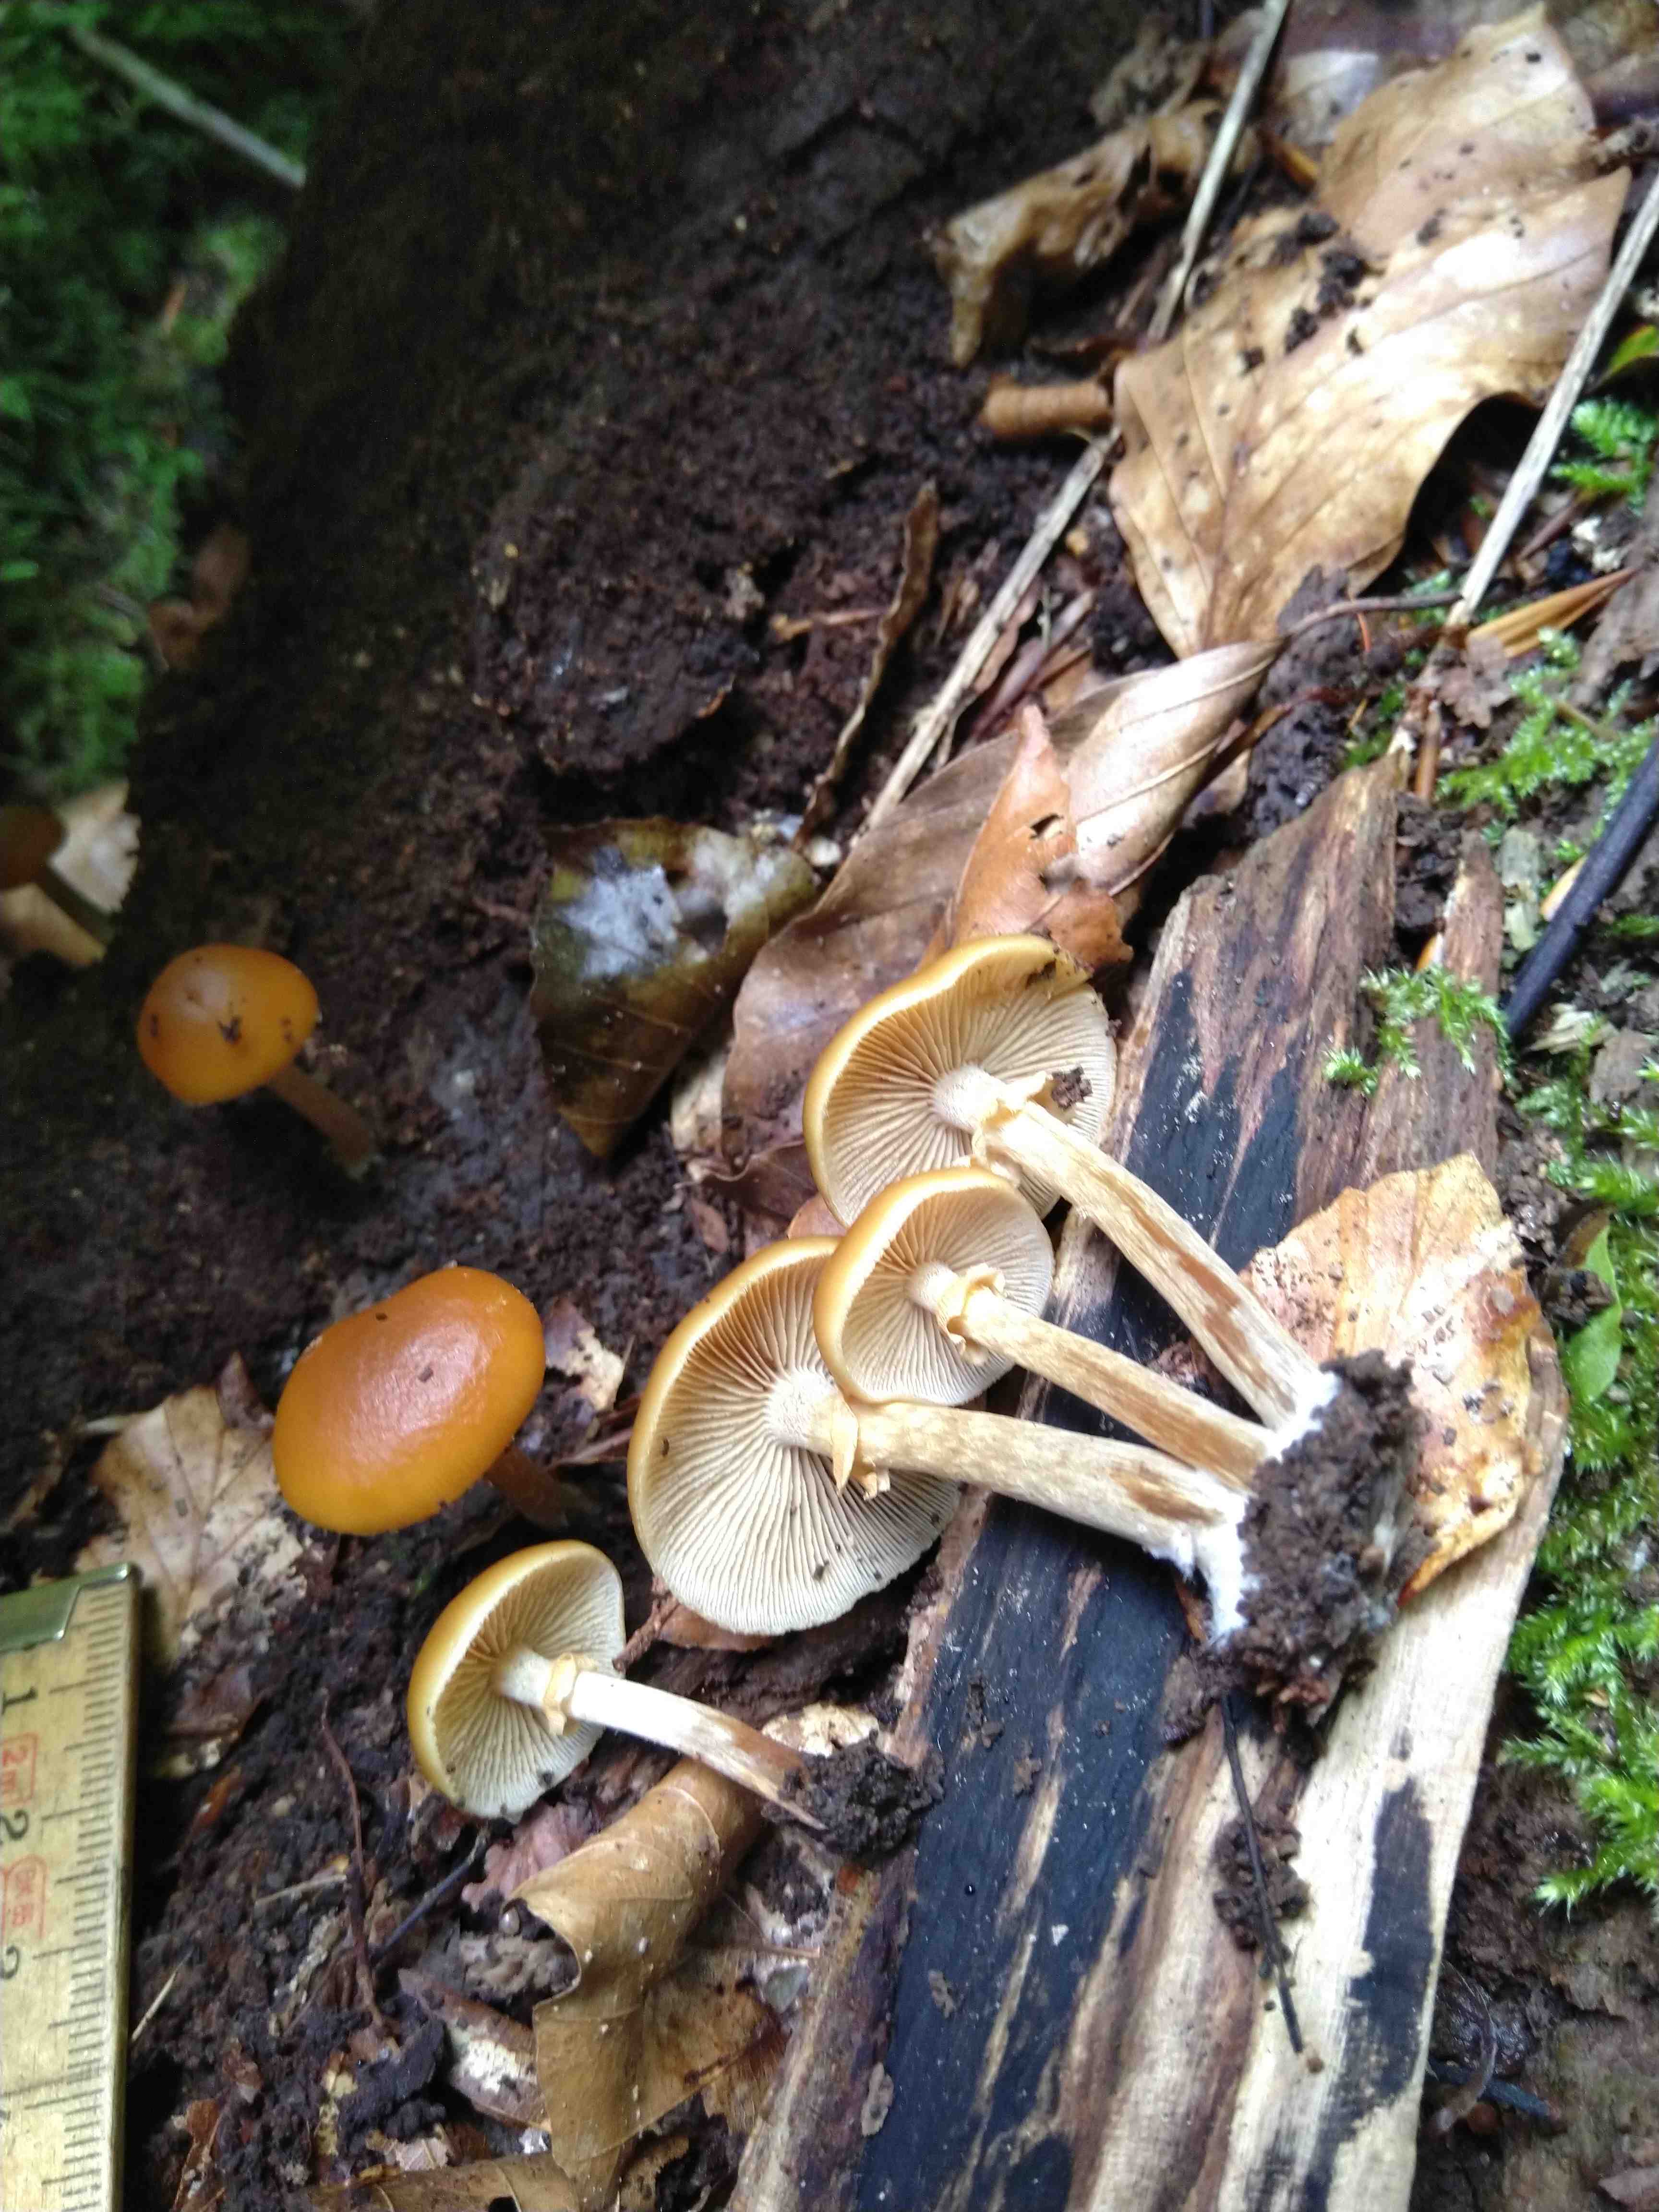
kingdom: Fungi
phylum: Basidiomycota
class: Agaricomycetes
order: Agaricales
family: Hymenogastraceae
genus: Galerina
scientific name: Galerina marginata
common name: randbæltet hjelmhat
